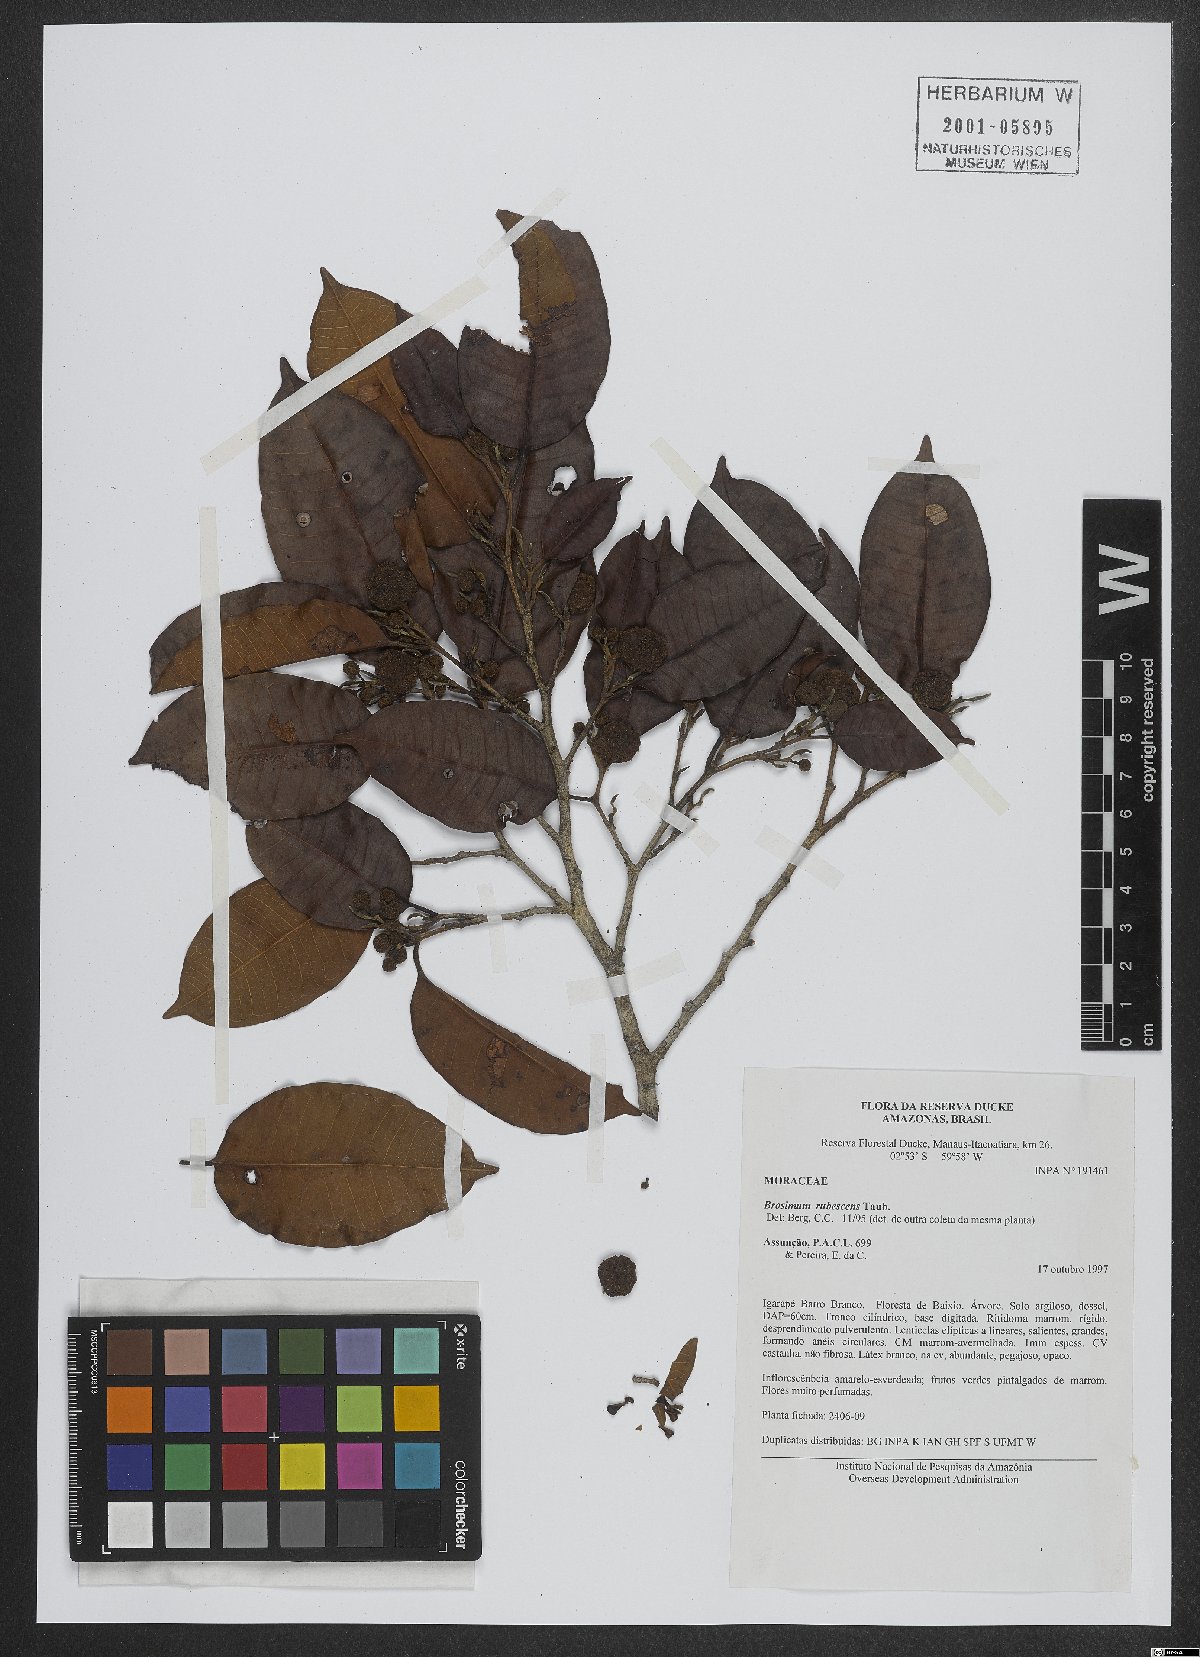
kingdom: Plantae
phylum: Tracheophyta
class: Magnoliopsida
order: Rosales
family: Moraceae
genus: Brosimum
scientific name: Brosimum rubescens
